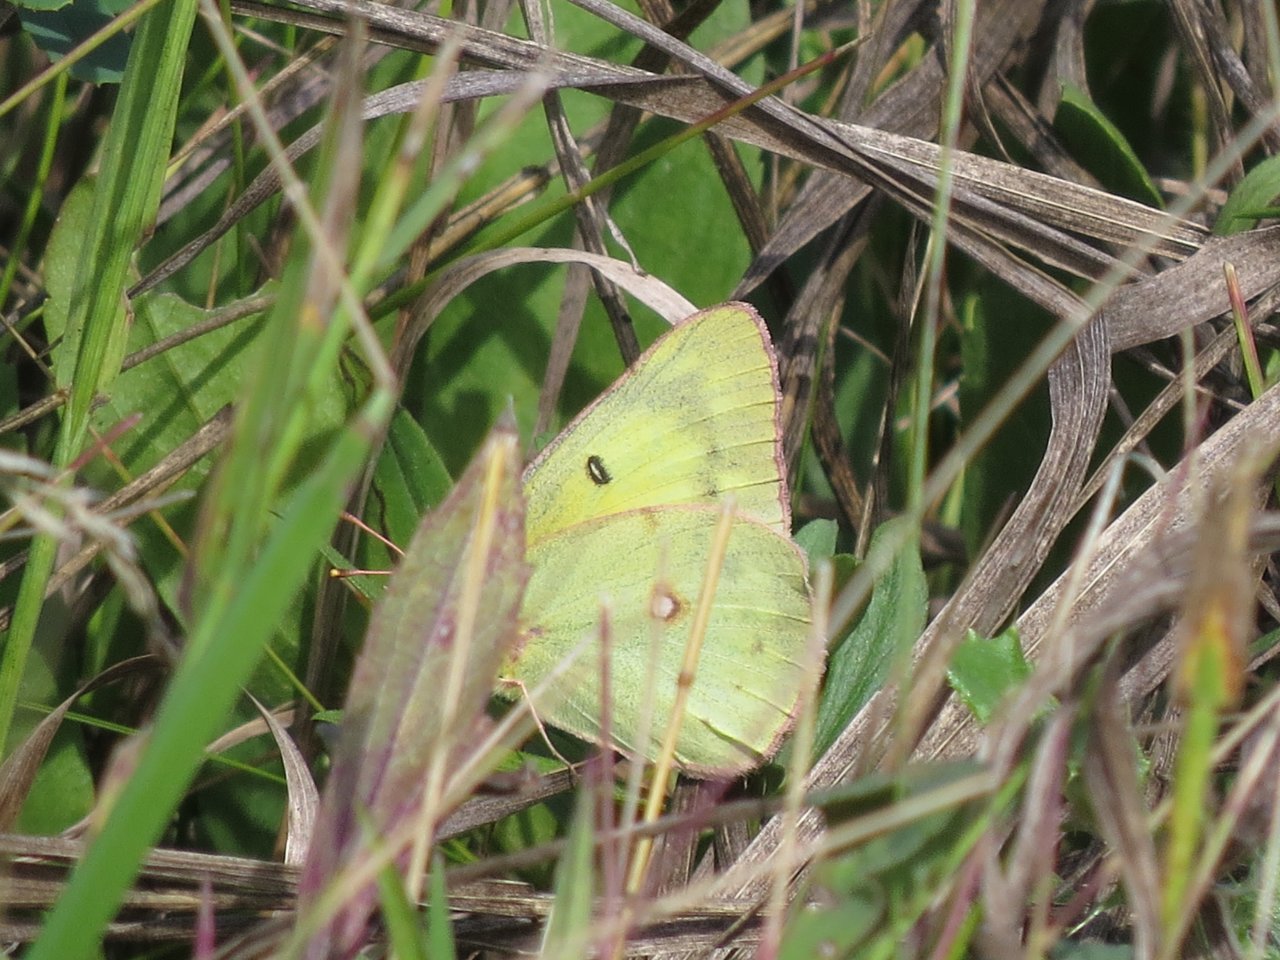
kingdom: Animalia
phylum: Arthropoda
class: Insecta
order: Lepidoptera
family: Pieridae
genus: Colias
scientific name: Colias philodice
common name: Clouded Sulphur
